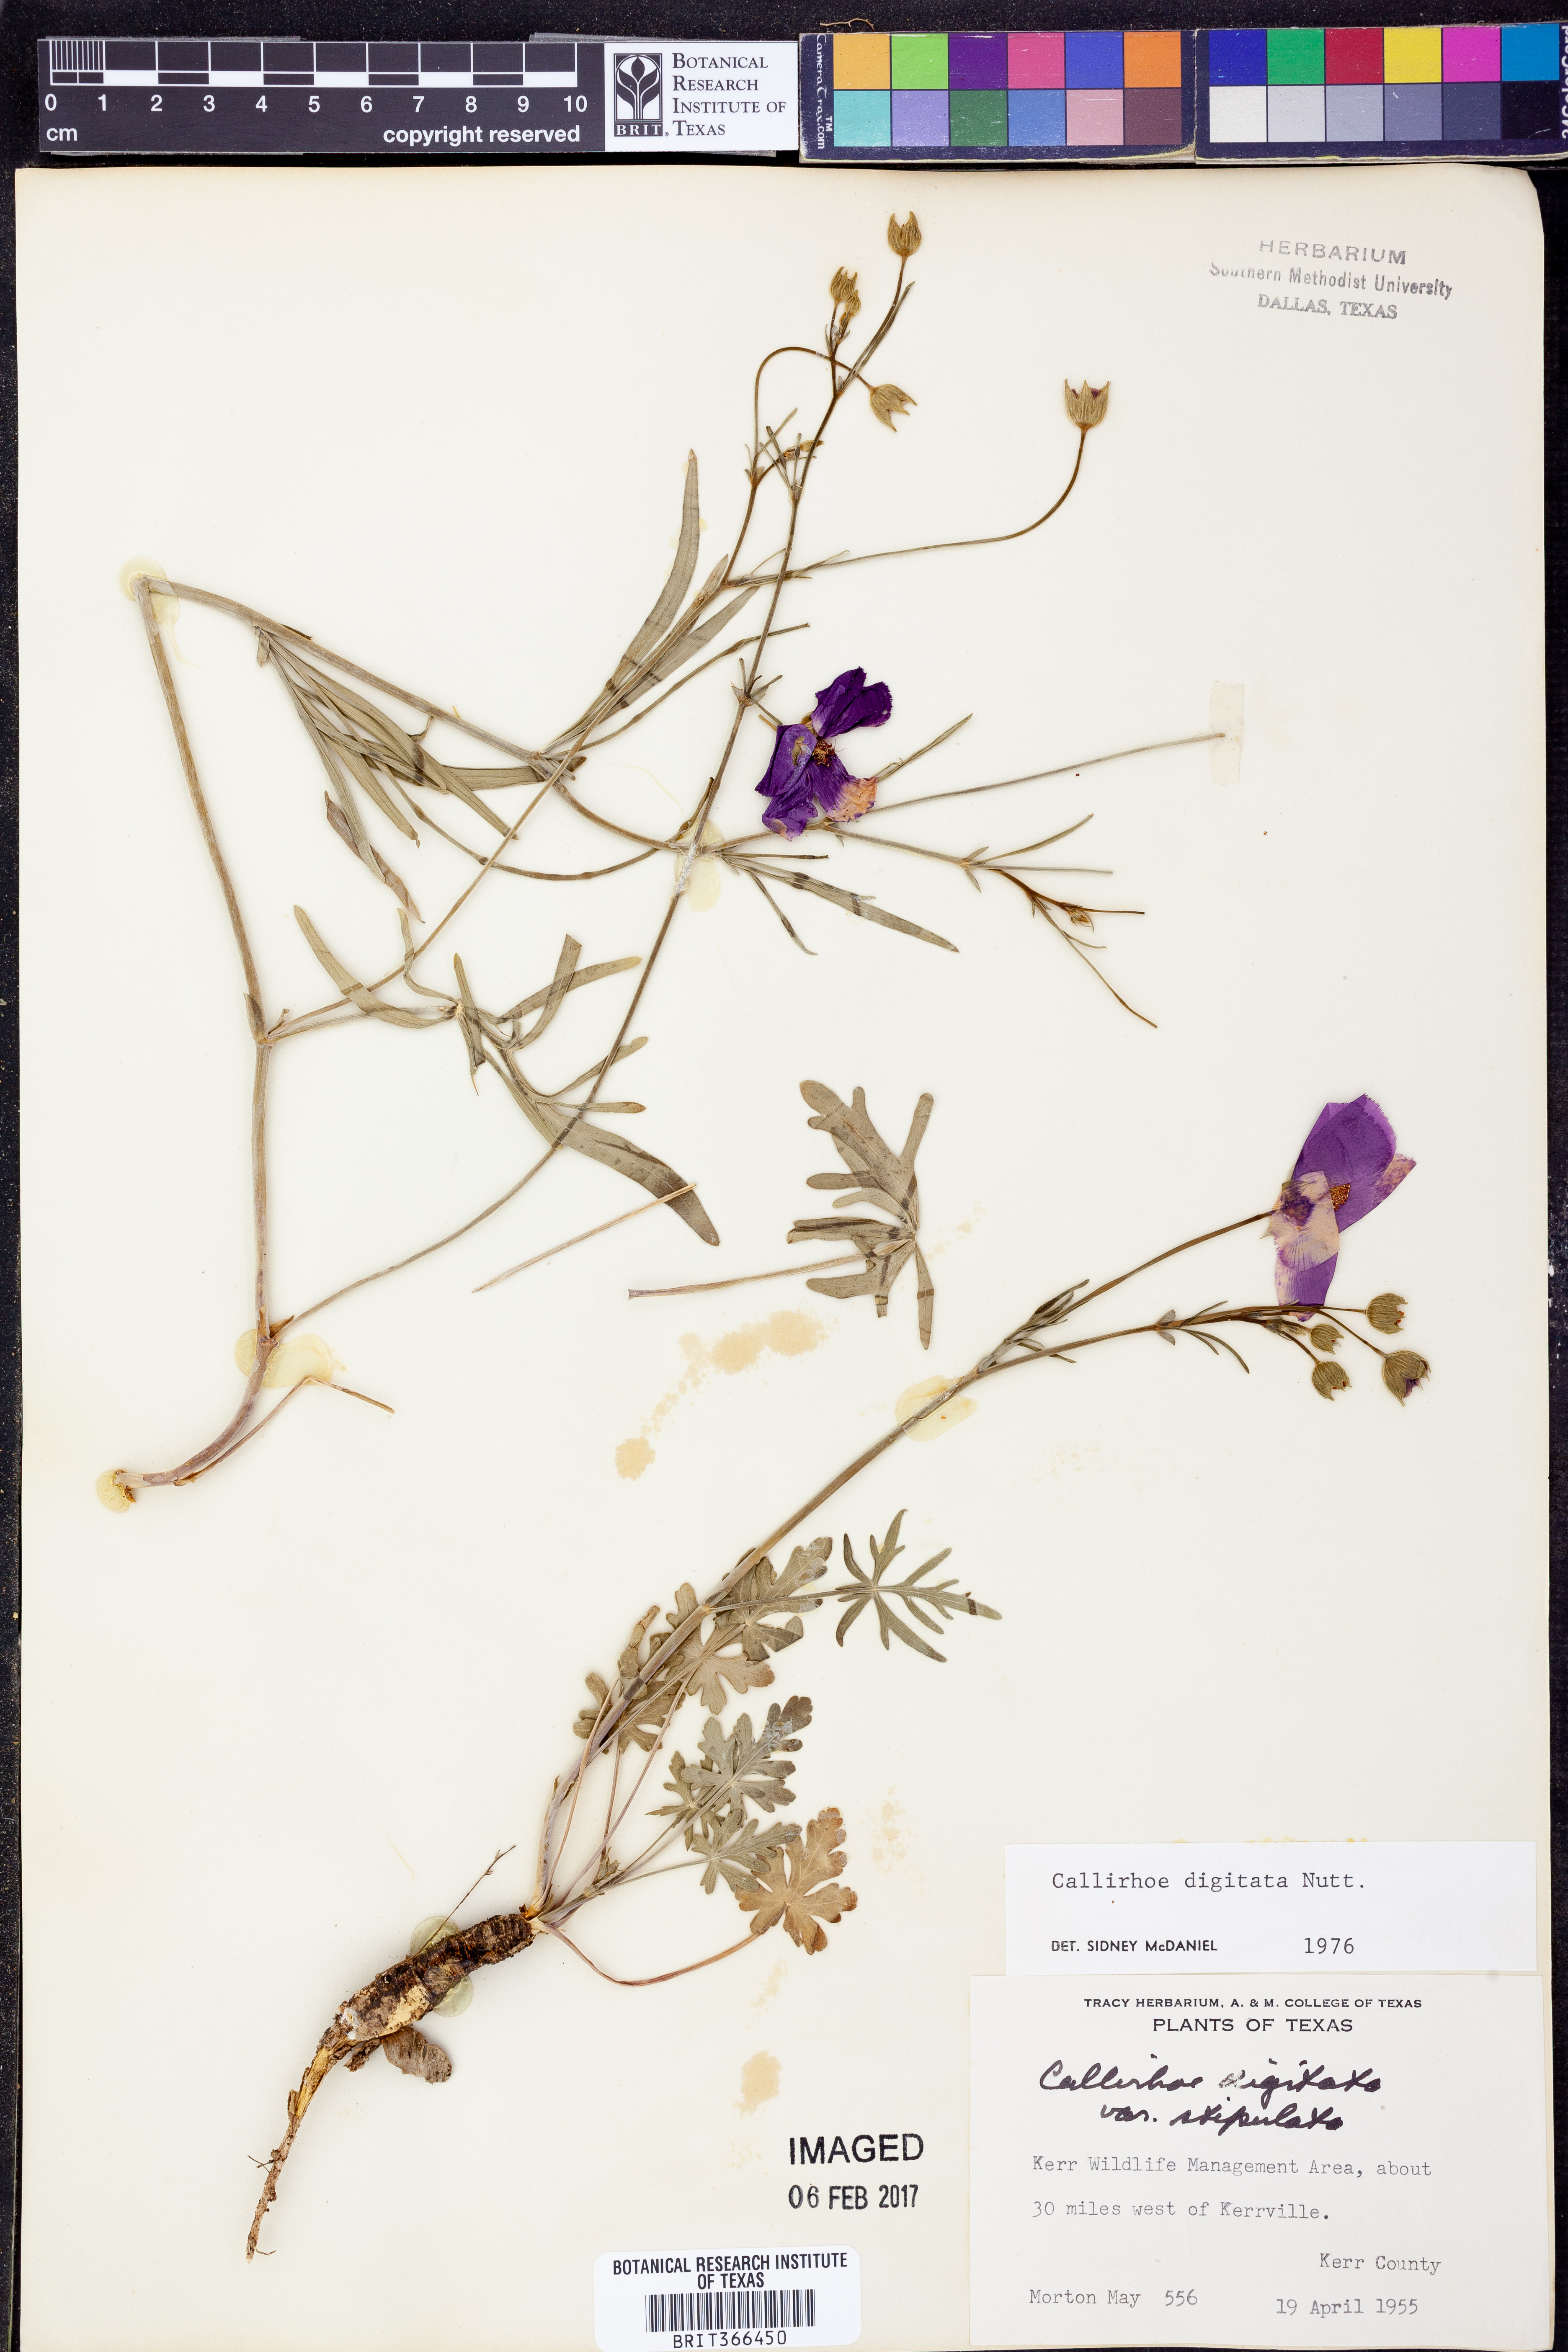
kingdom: Plantae
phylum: Tracheophyta
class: Magnoliopsida
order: Malvales
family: Malvaceae
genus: Callirhoe
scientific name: Callirhoe digitata
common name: Finger poppy-mallow
